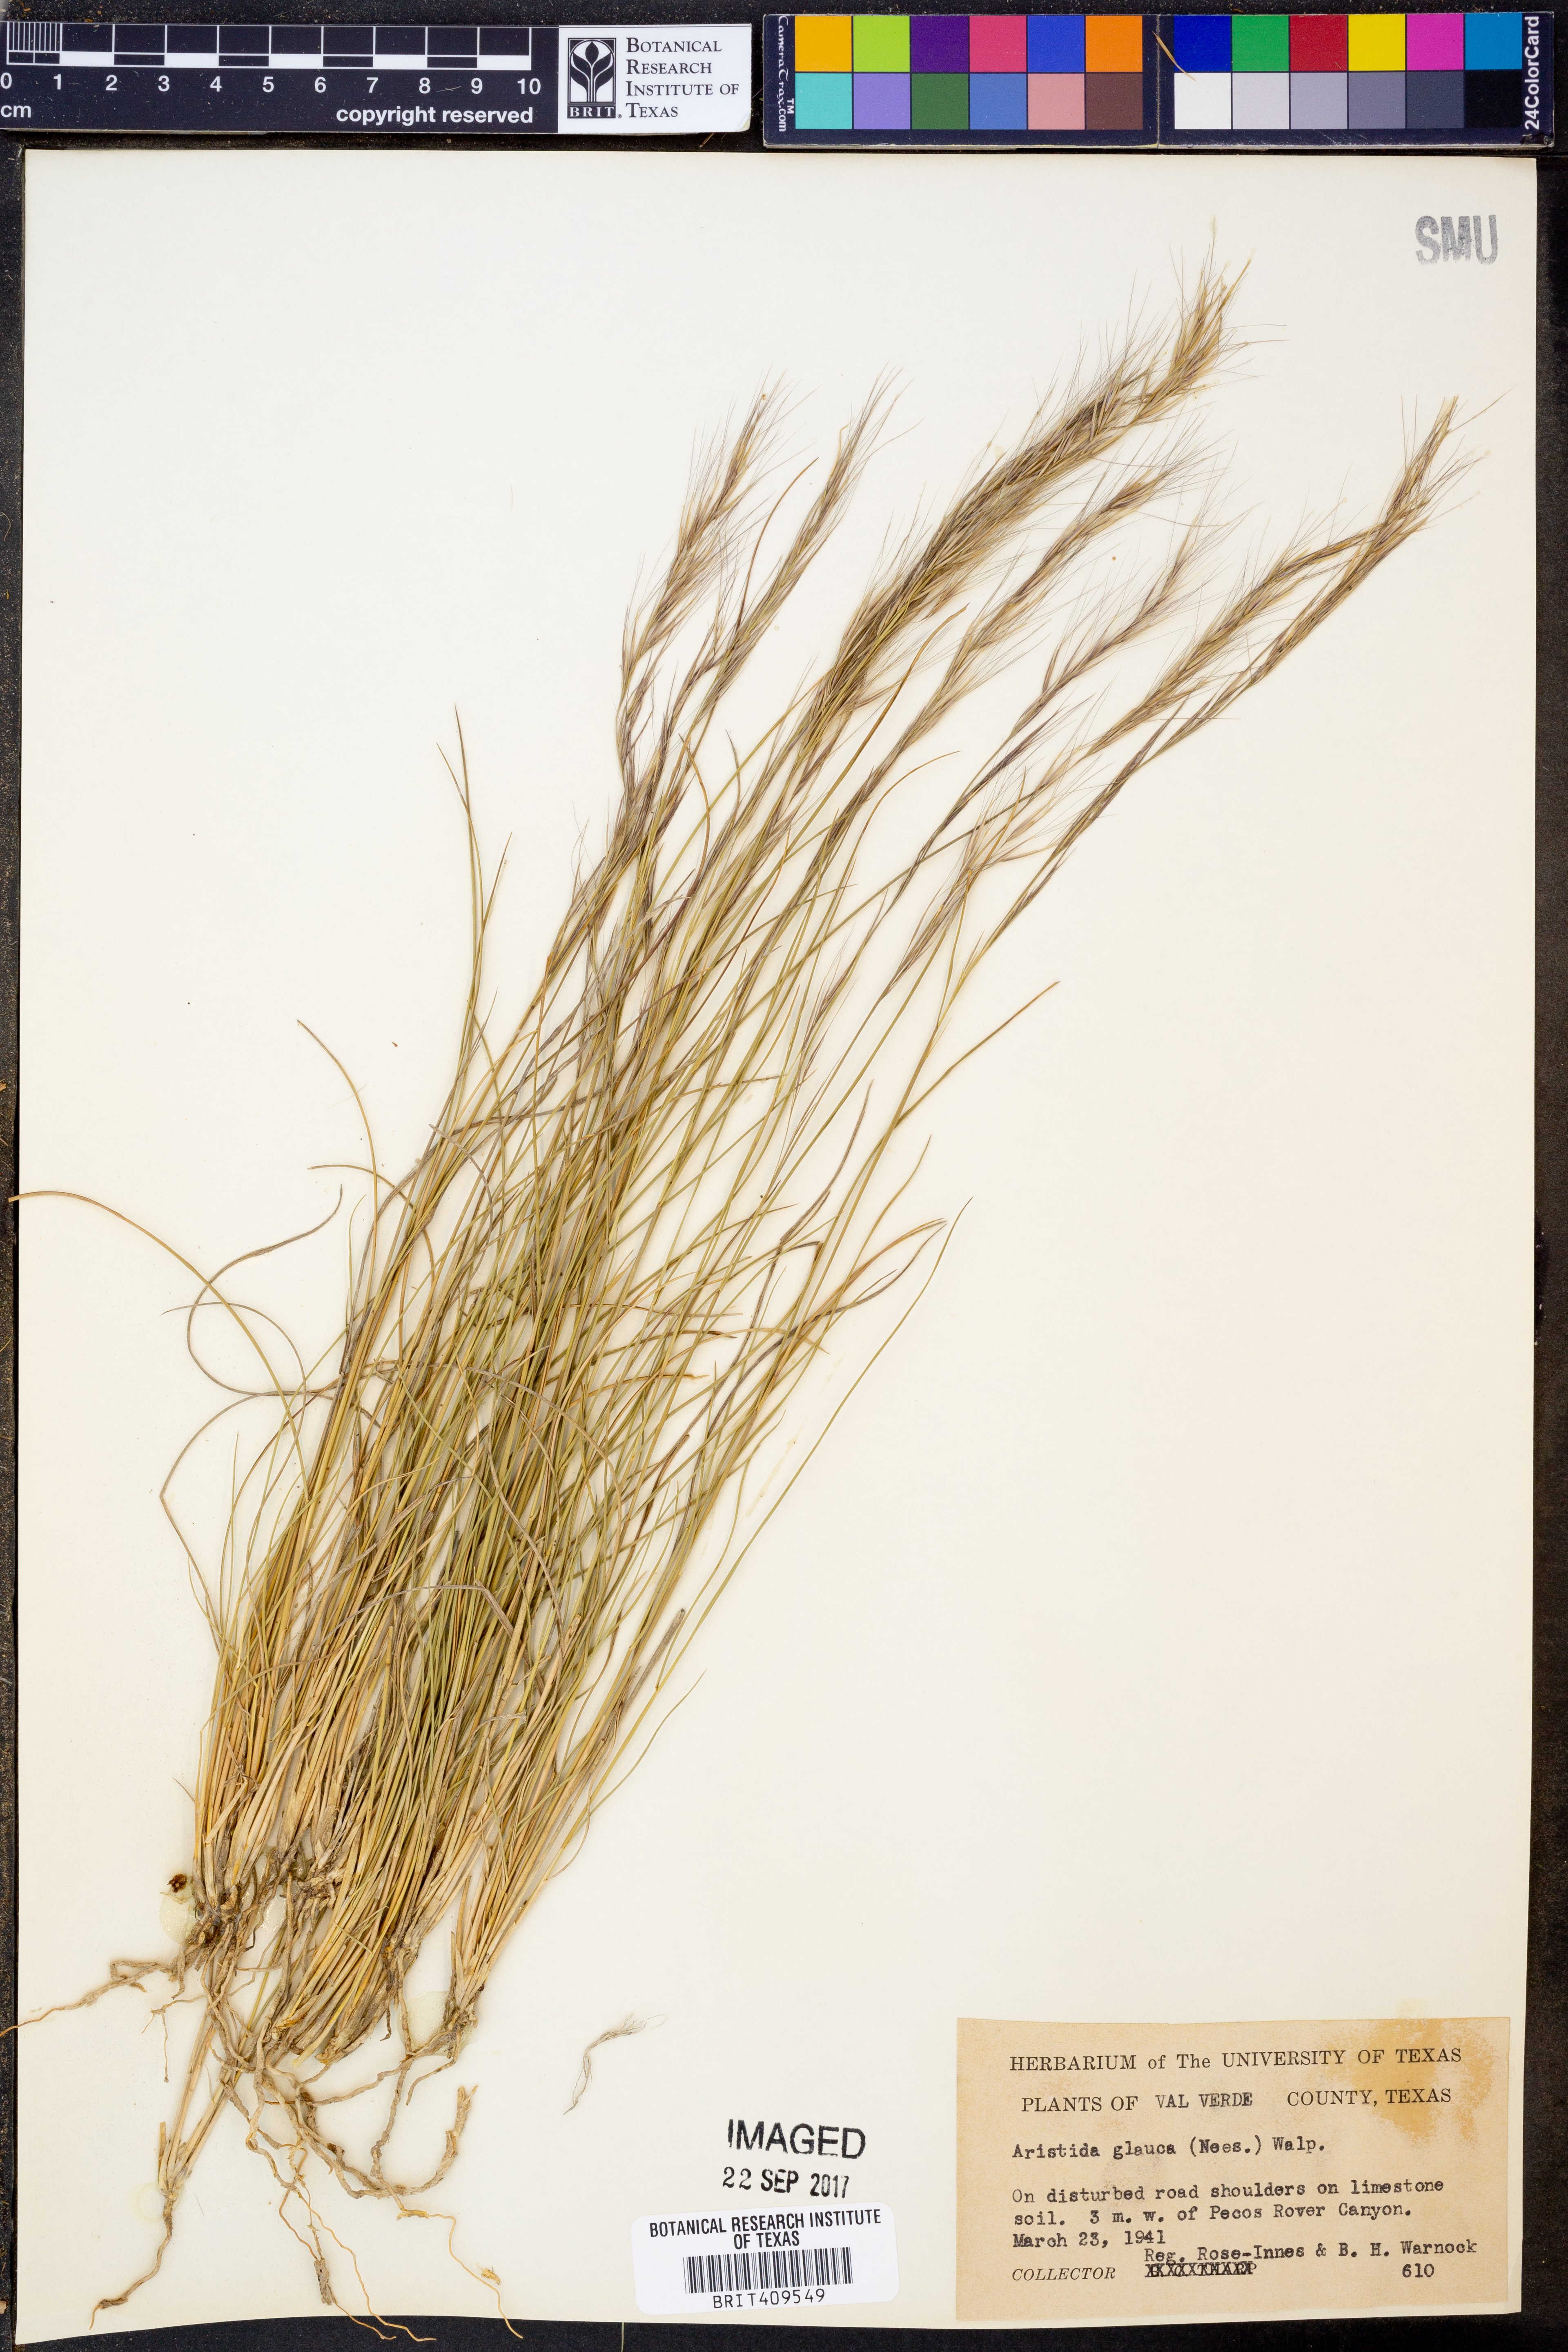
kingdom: Plantae
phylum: Tracheophyta
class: Liliopsida
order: Poales
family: Poaceae
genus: Aristida
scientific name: Aristida glauca
